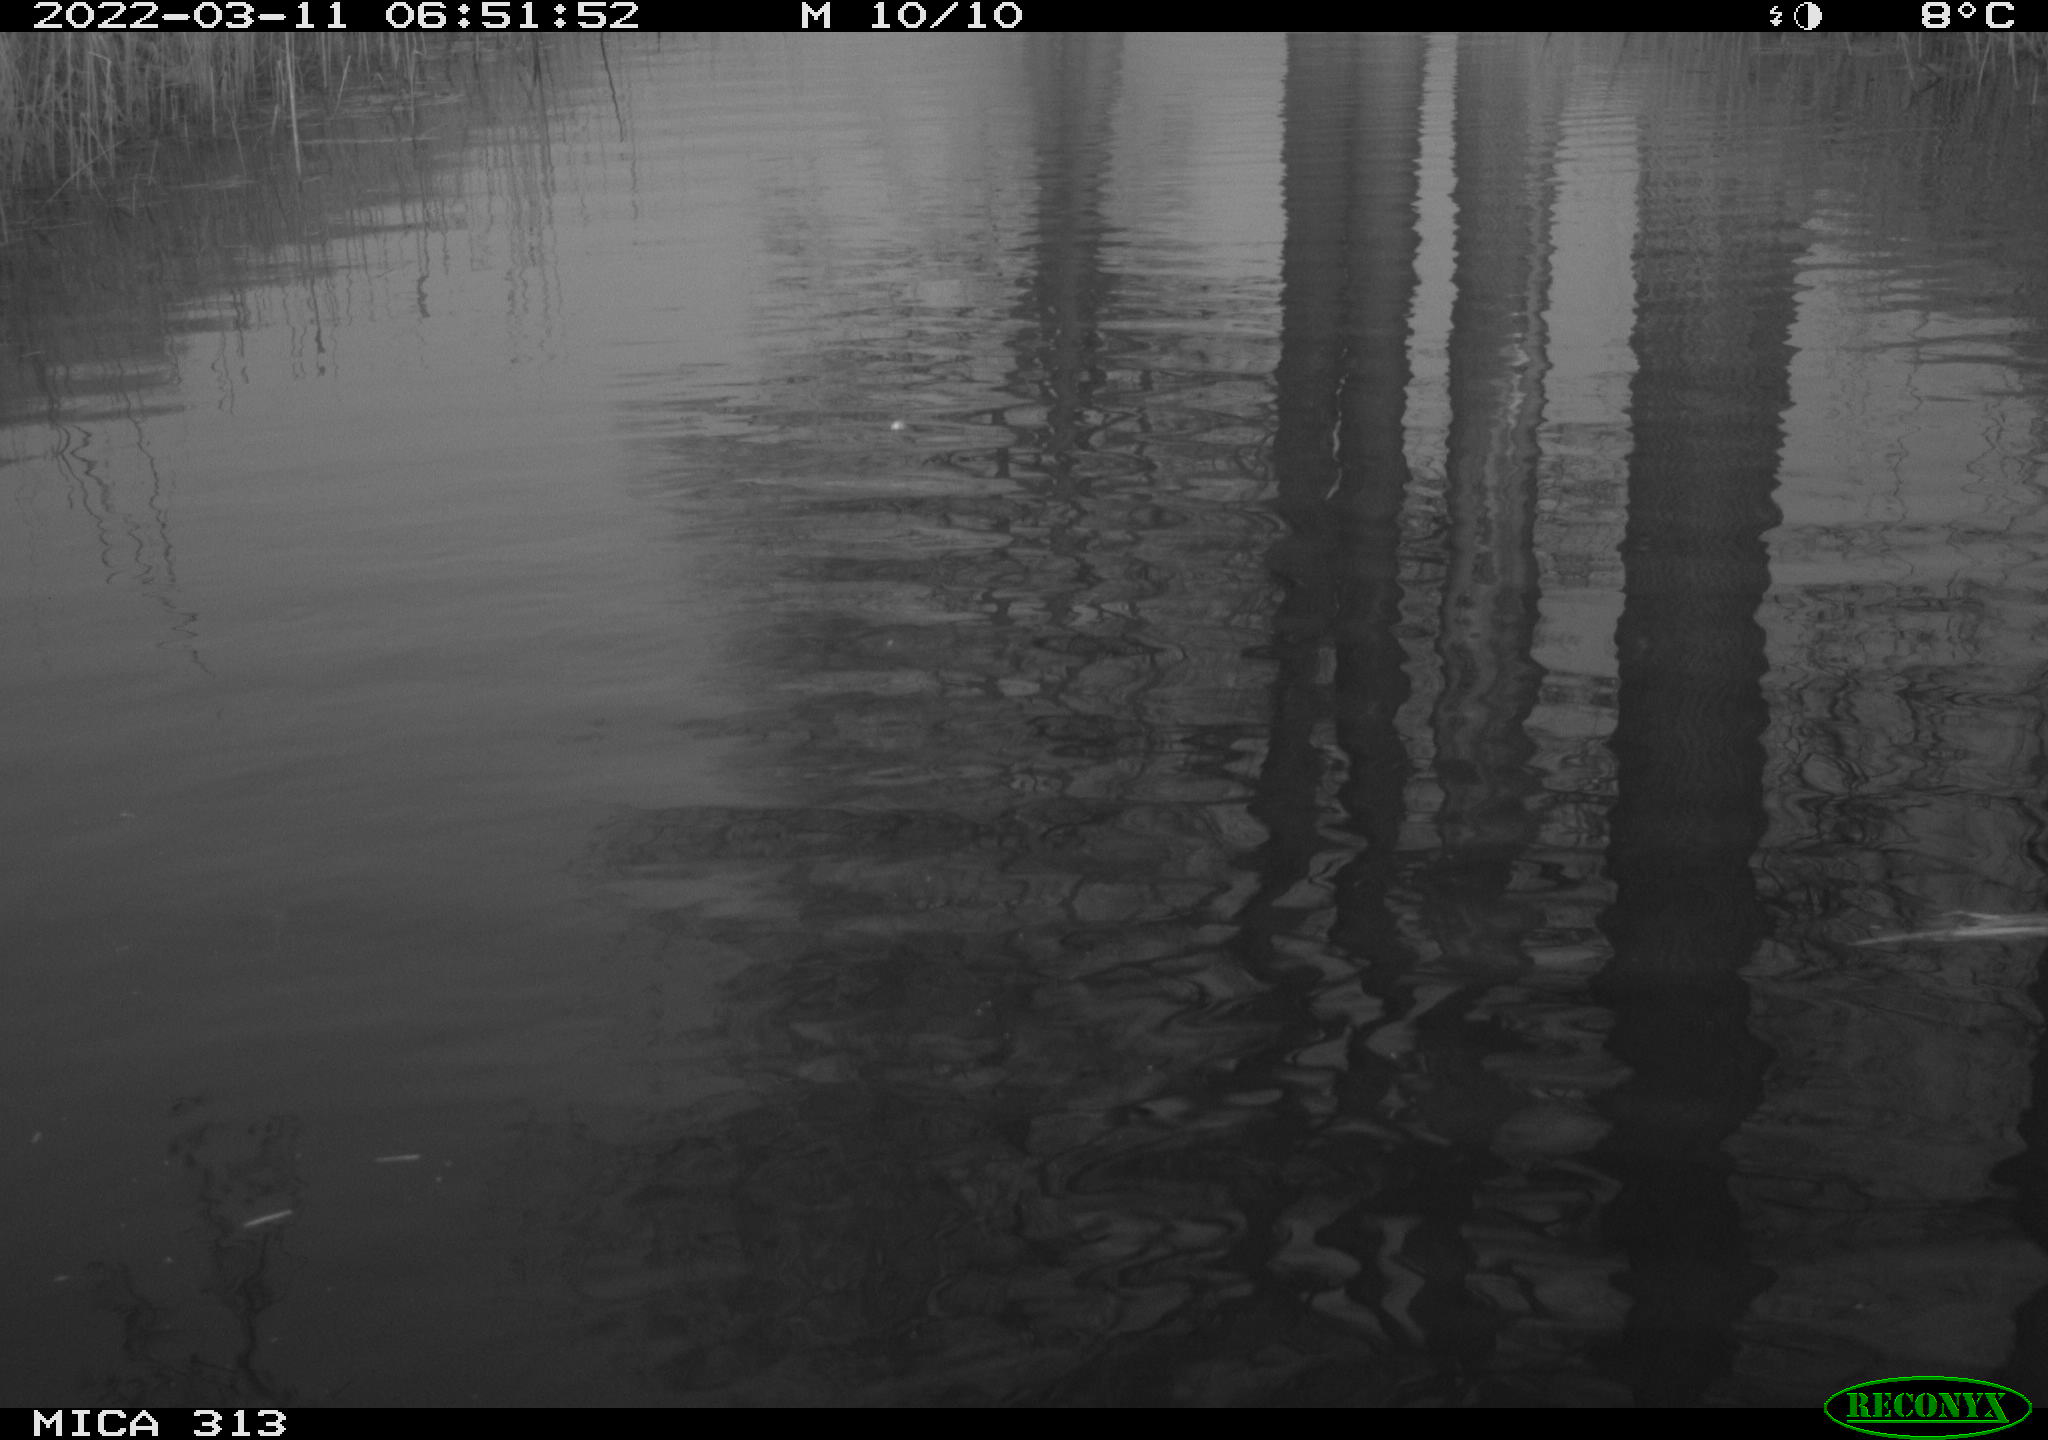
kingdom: Animalia
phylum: Chordata
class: Aves
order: Anseriformes
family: Anatidae
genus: Anas
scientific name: Anas platyrhynchos
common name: Mallard
